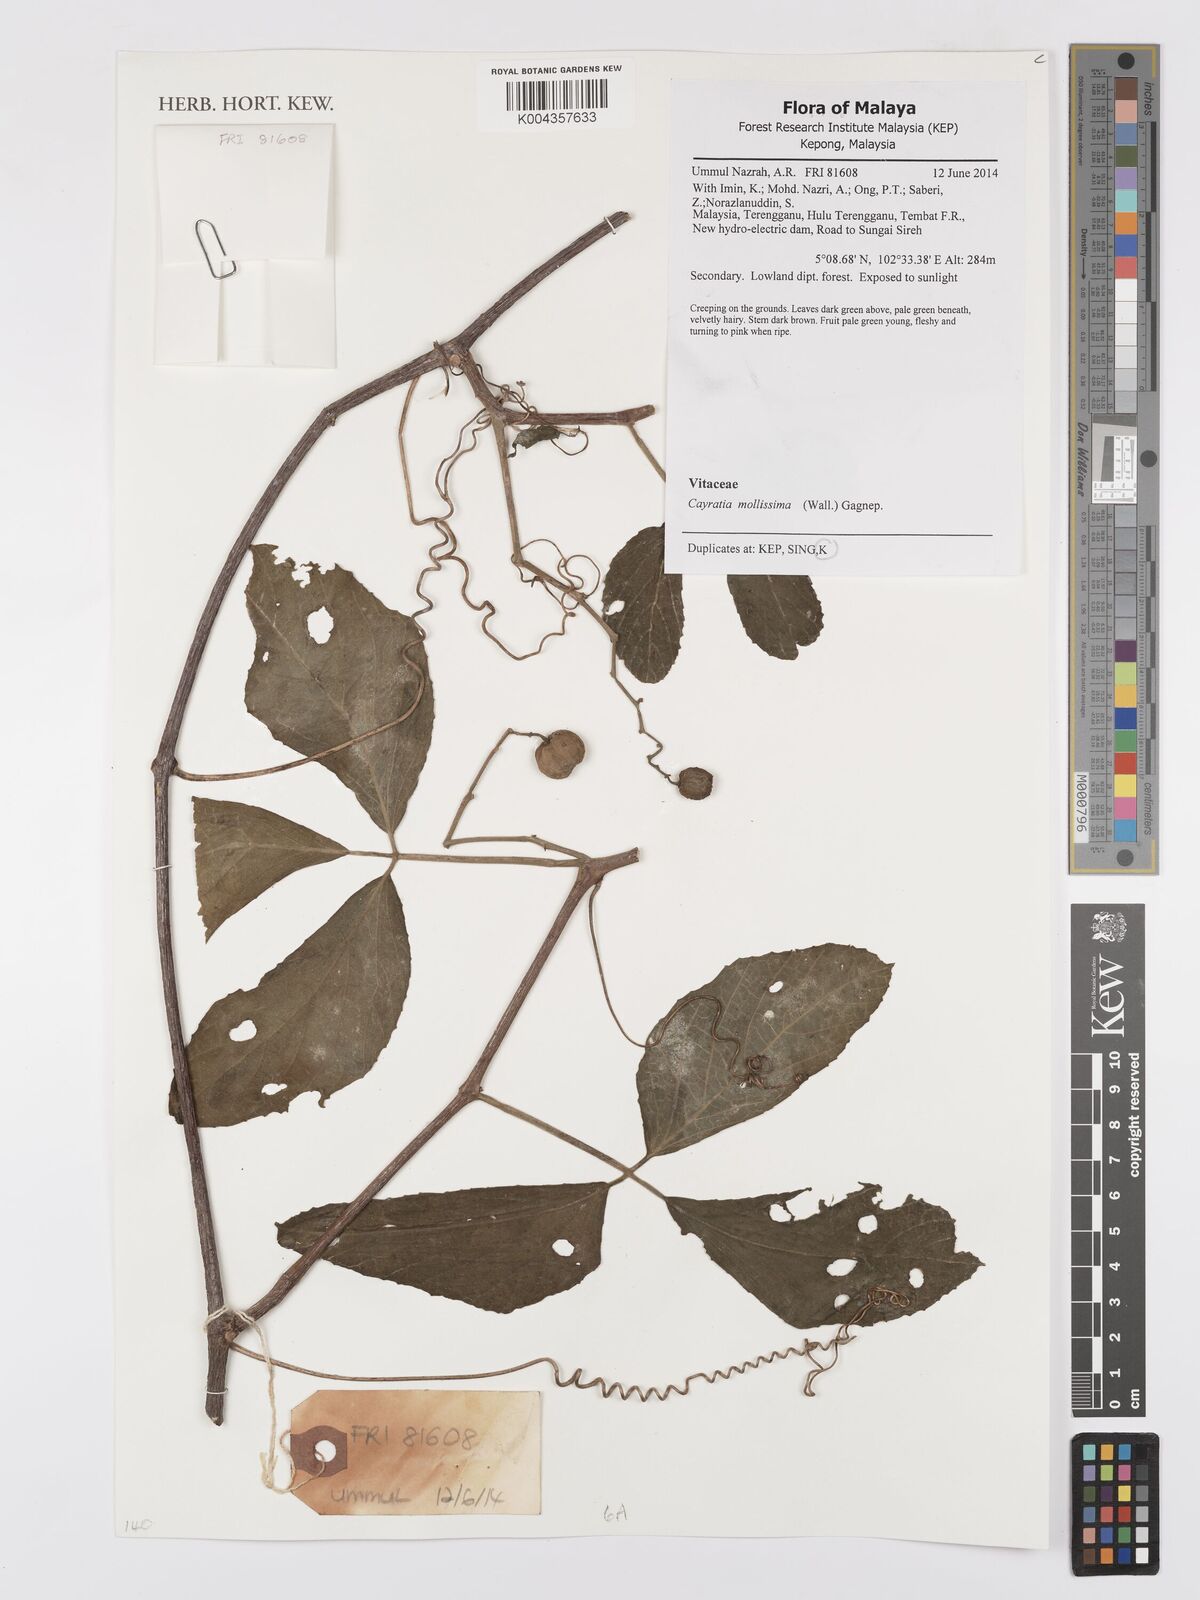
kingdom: Plantae
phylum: Tracheophyta
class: Magnoliopsida
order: Vitales
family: Vitaceae
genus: Cayratia
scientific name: Cayratia mollissima
